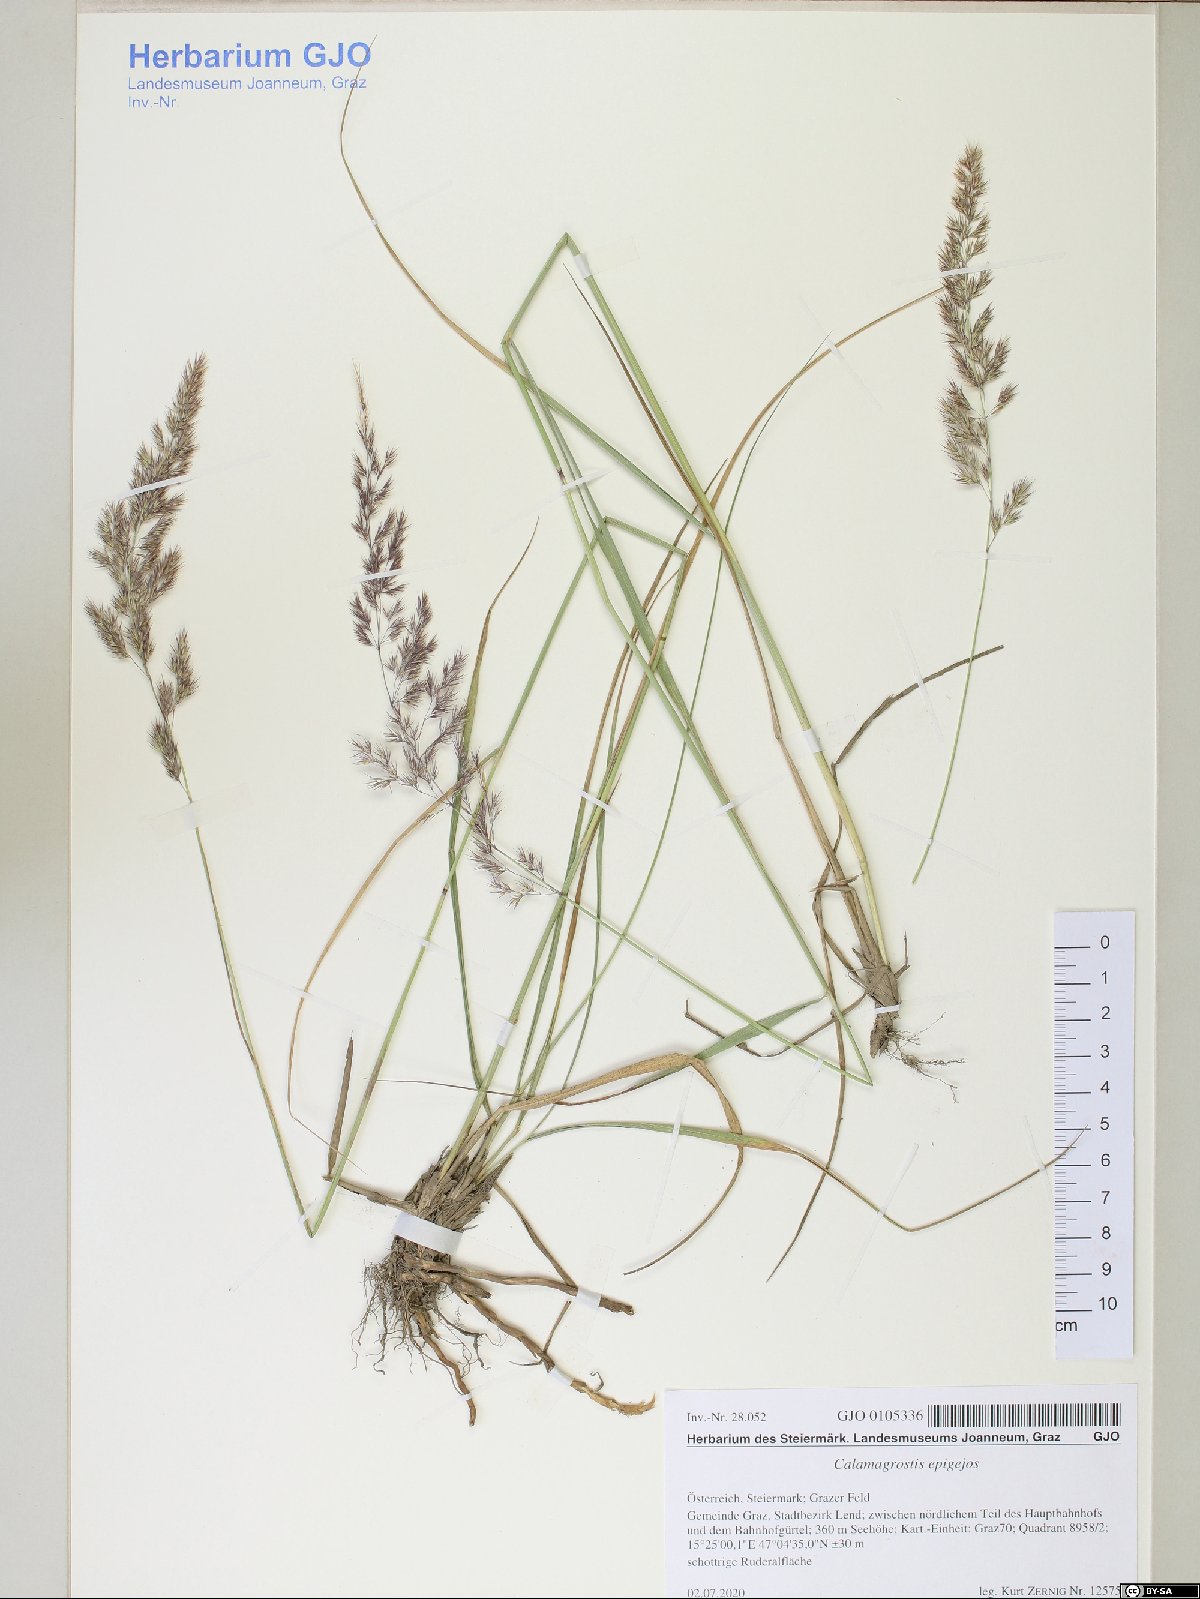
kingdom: Plantae
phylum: Tracheophyta
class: Liliopsida
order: Poales
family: Poaceae
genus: Calamagrostis
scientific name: Calamagrostis epigejos
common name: Wood small-reed
